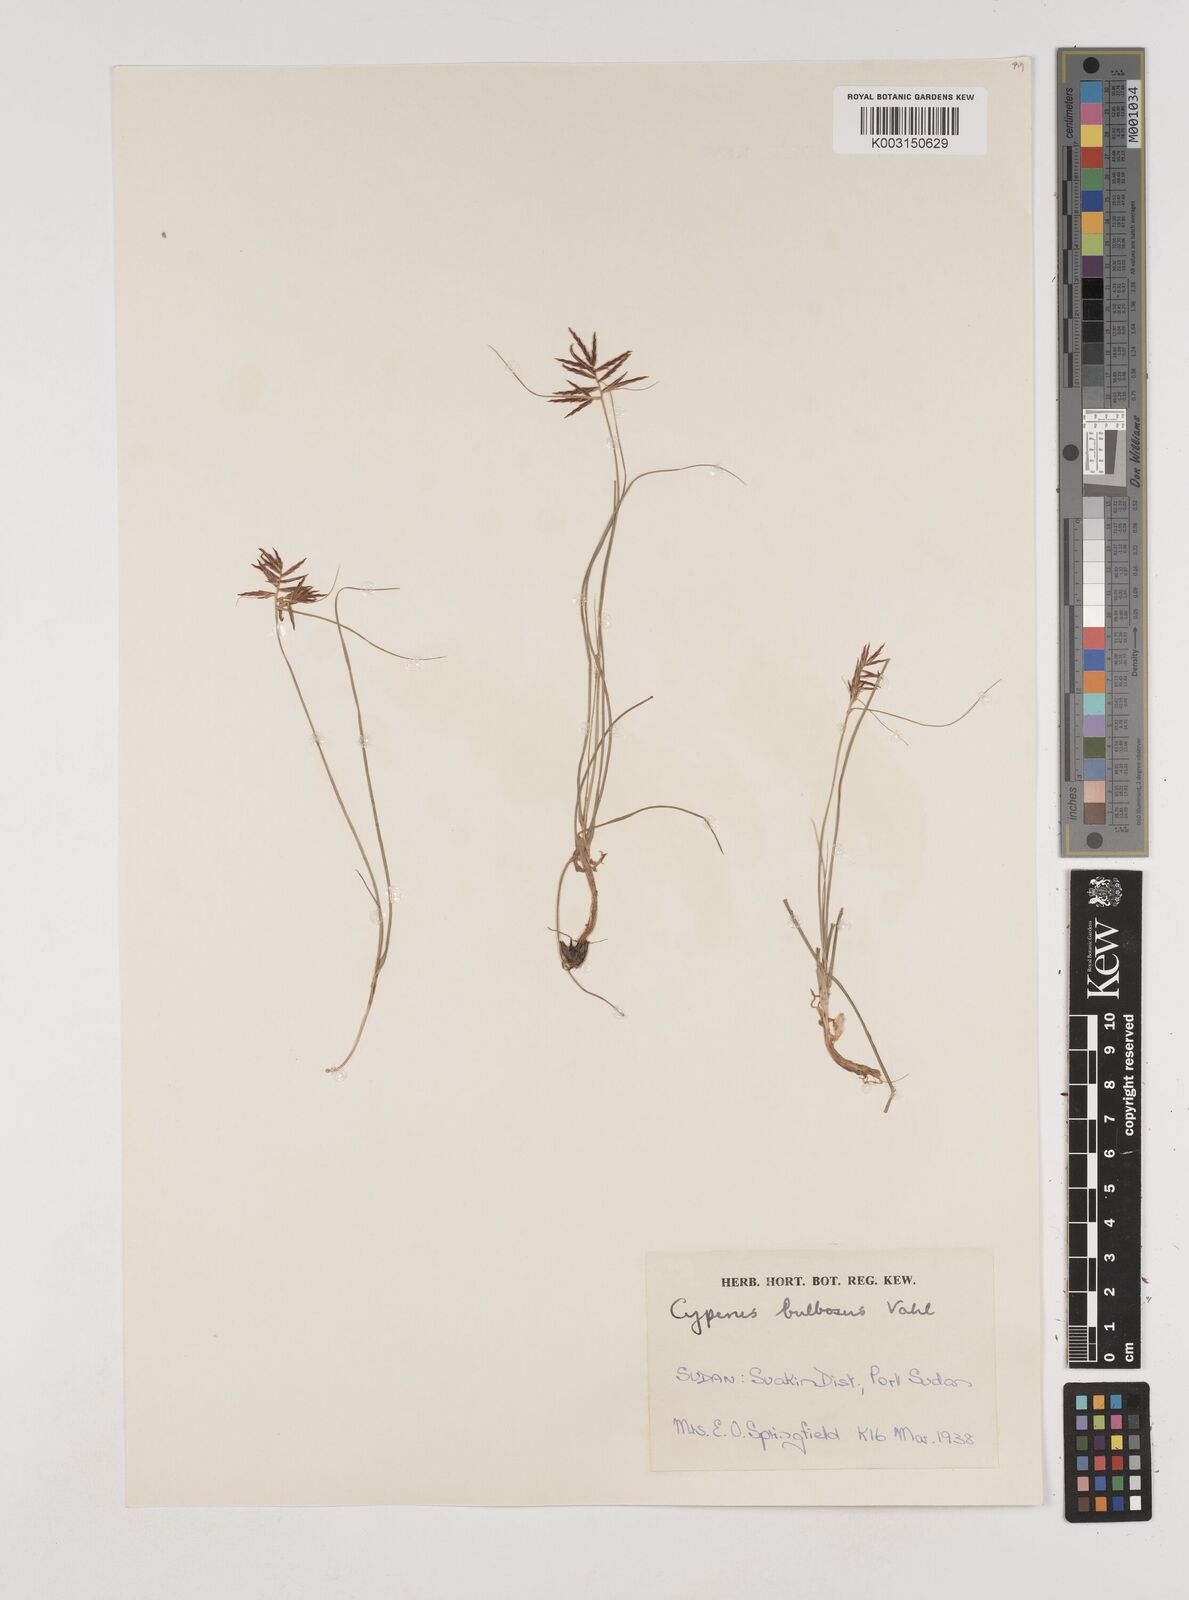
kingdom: Plantae
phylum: Tracheophyta
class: Liliopsida
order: Poales
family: Cyperaceae
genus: Cyperus
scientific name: Cyperus bulbosus
